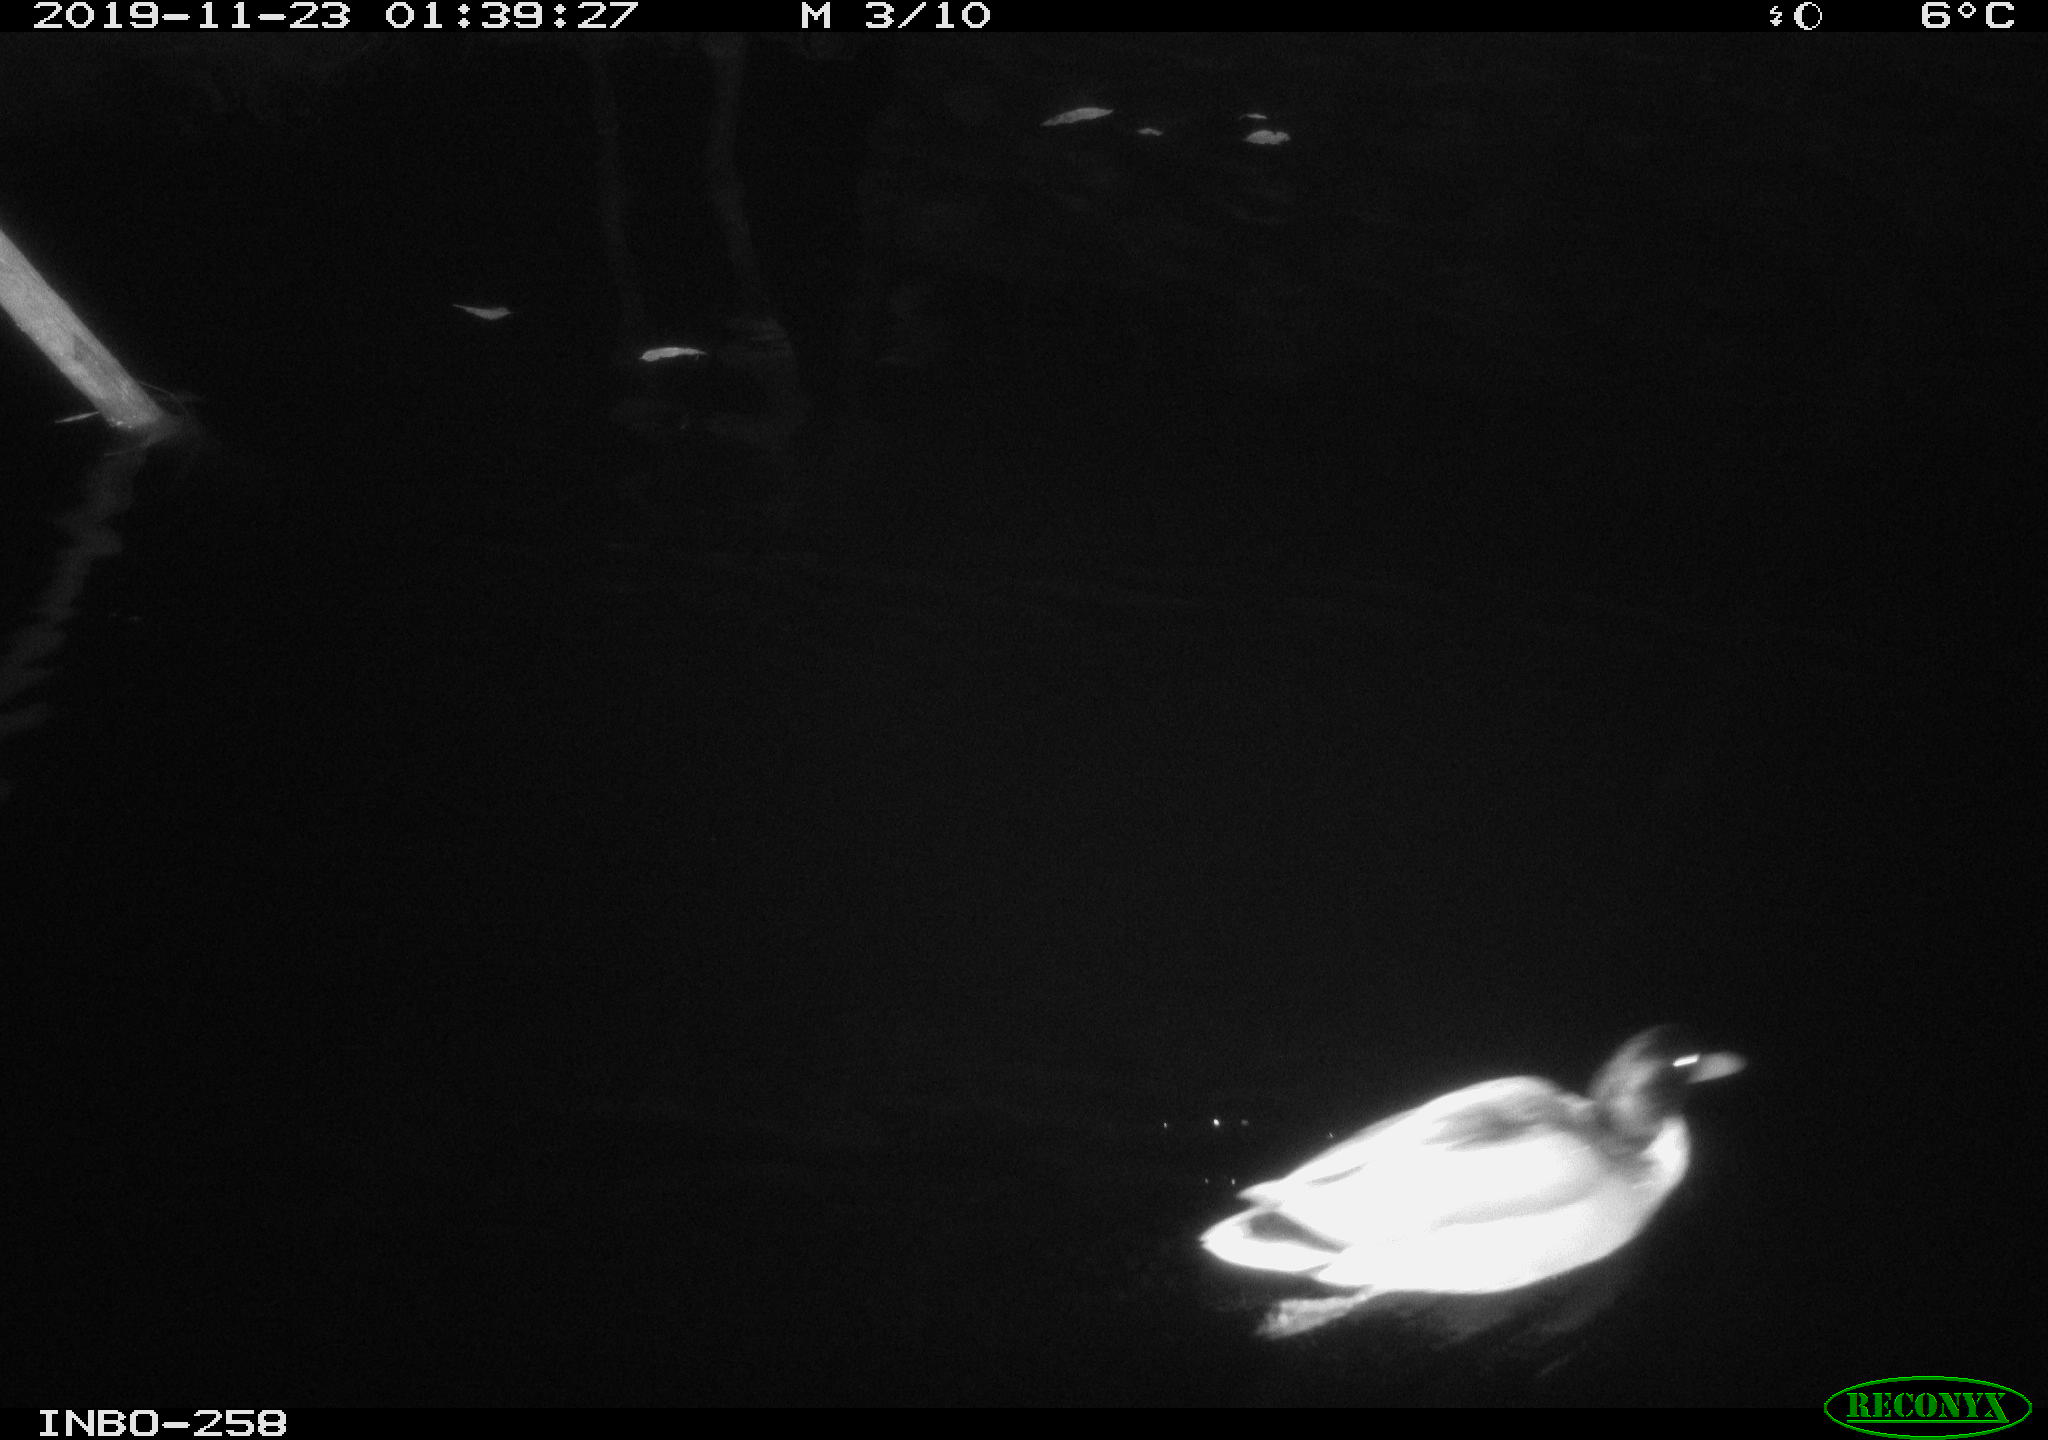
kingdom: Animalia
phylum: Chordata
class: Aves
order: Anseriformes
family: Anatidae
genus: Anas
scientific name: Anas platyrhynchos
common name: Mallard
